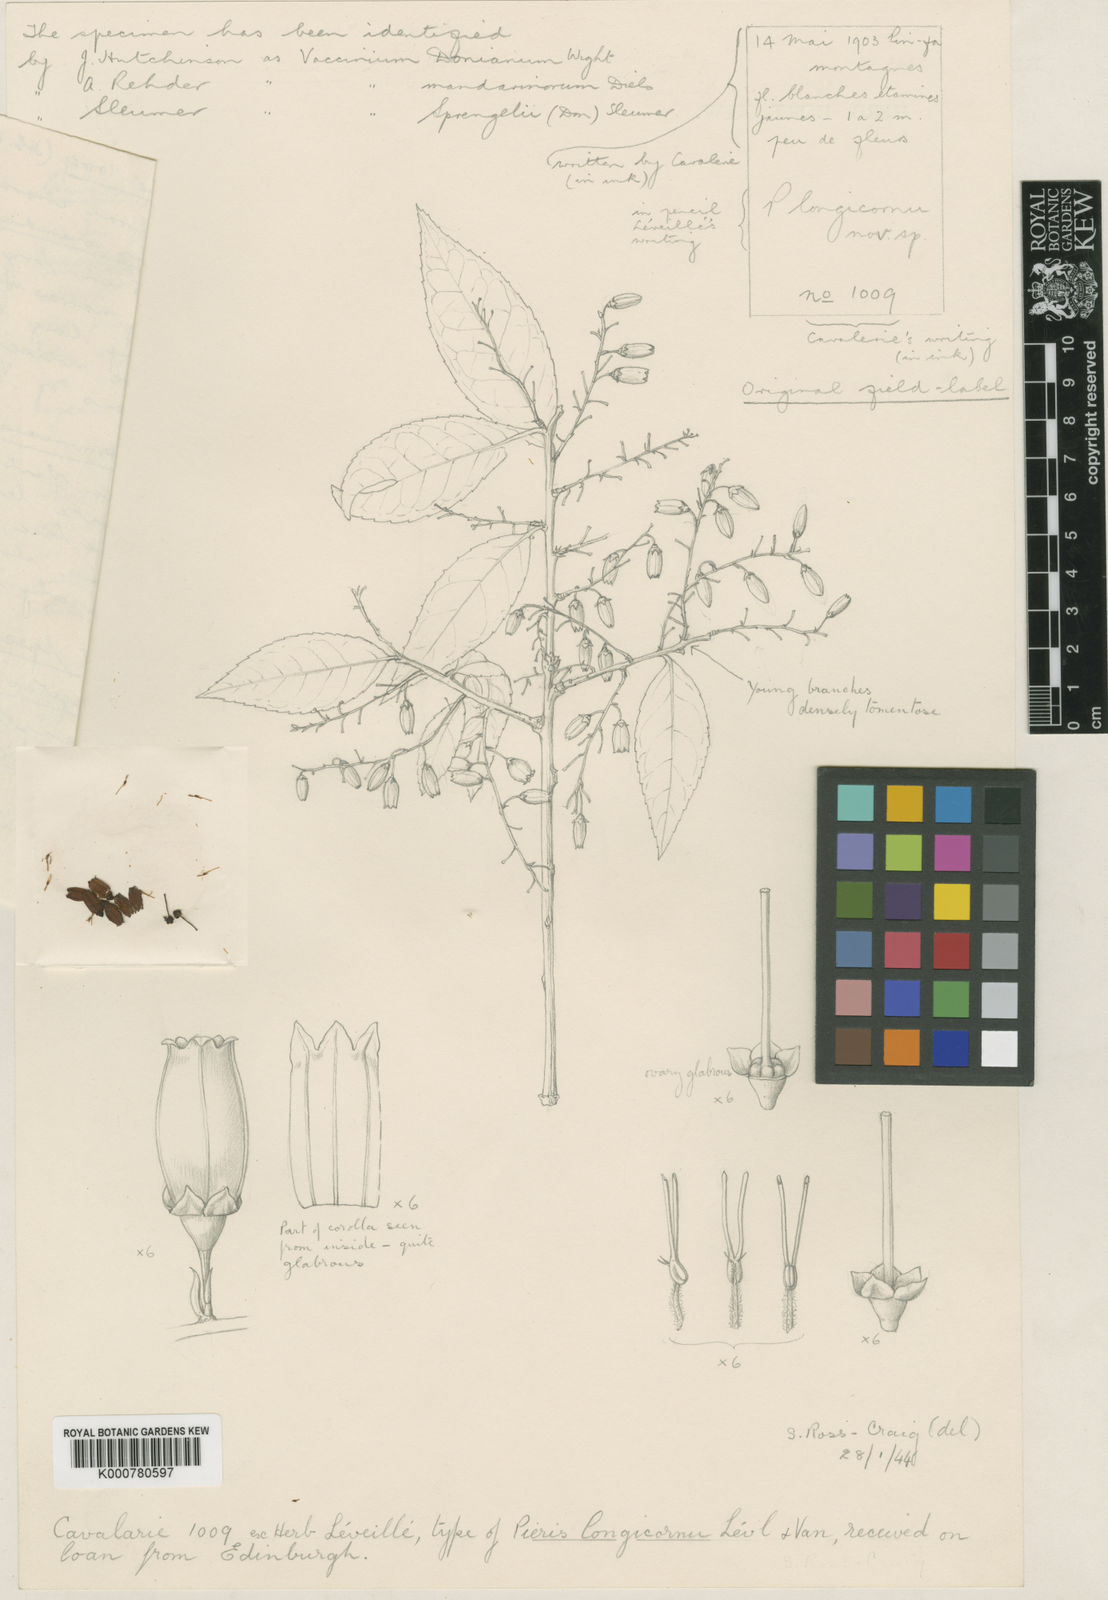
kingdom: Plantae
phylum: Tracheophyta
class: Magnoliopsida
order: Ericales
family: Ericaceae
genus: Vaccinium
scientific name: Vaccinium sprengelii
